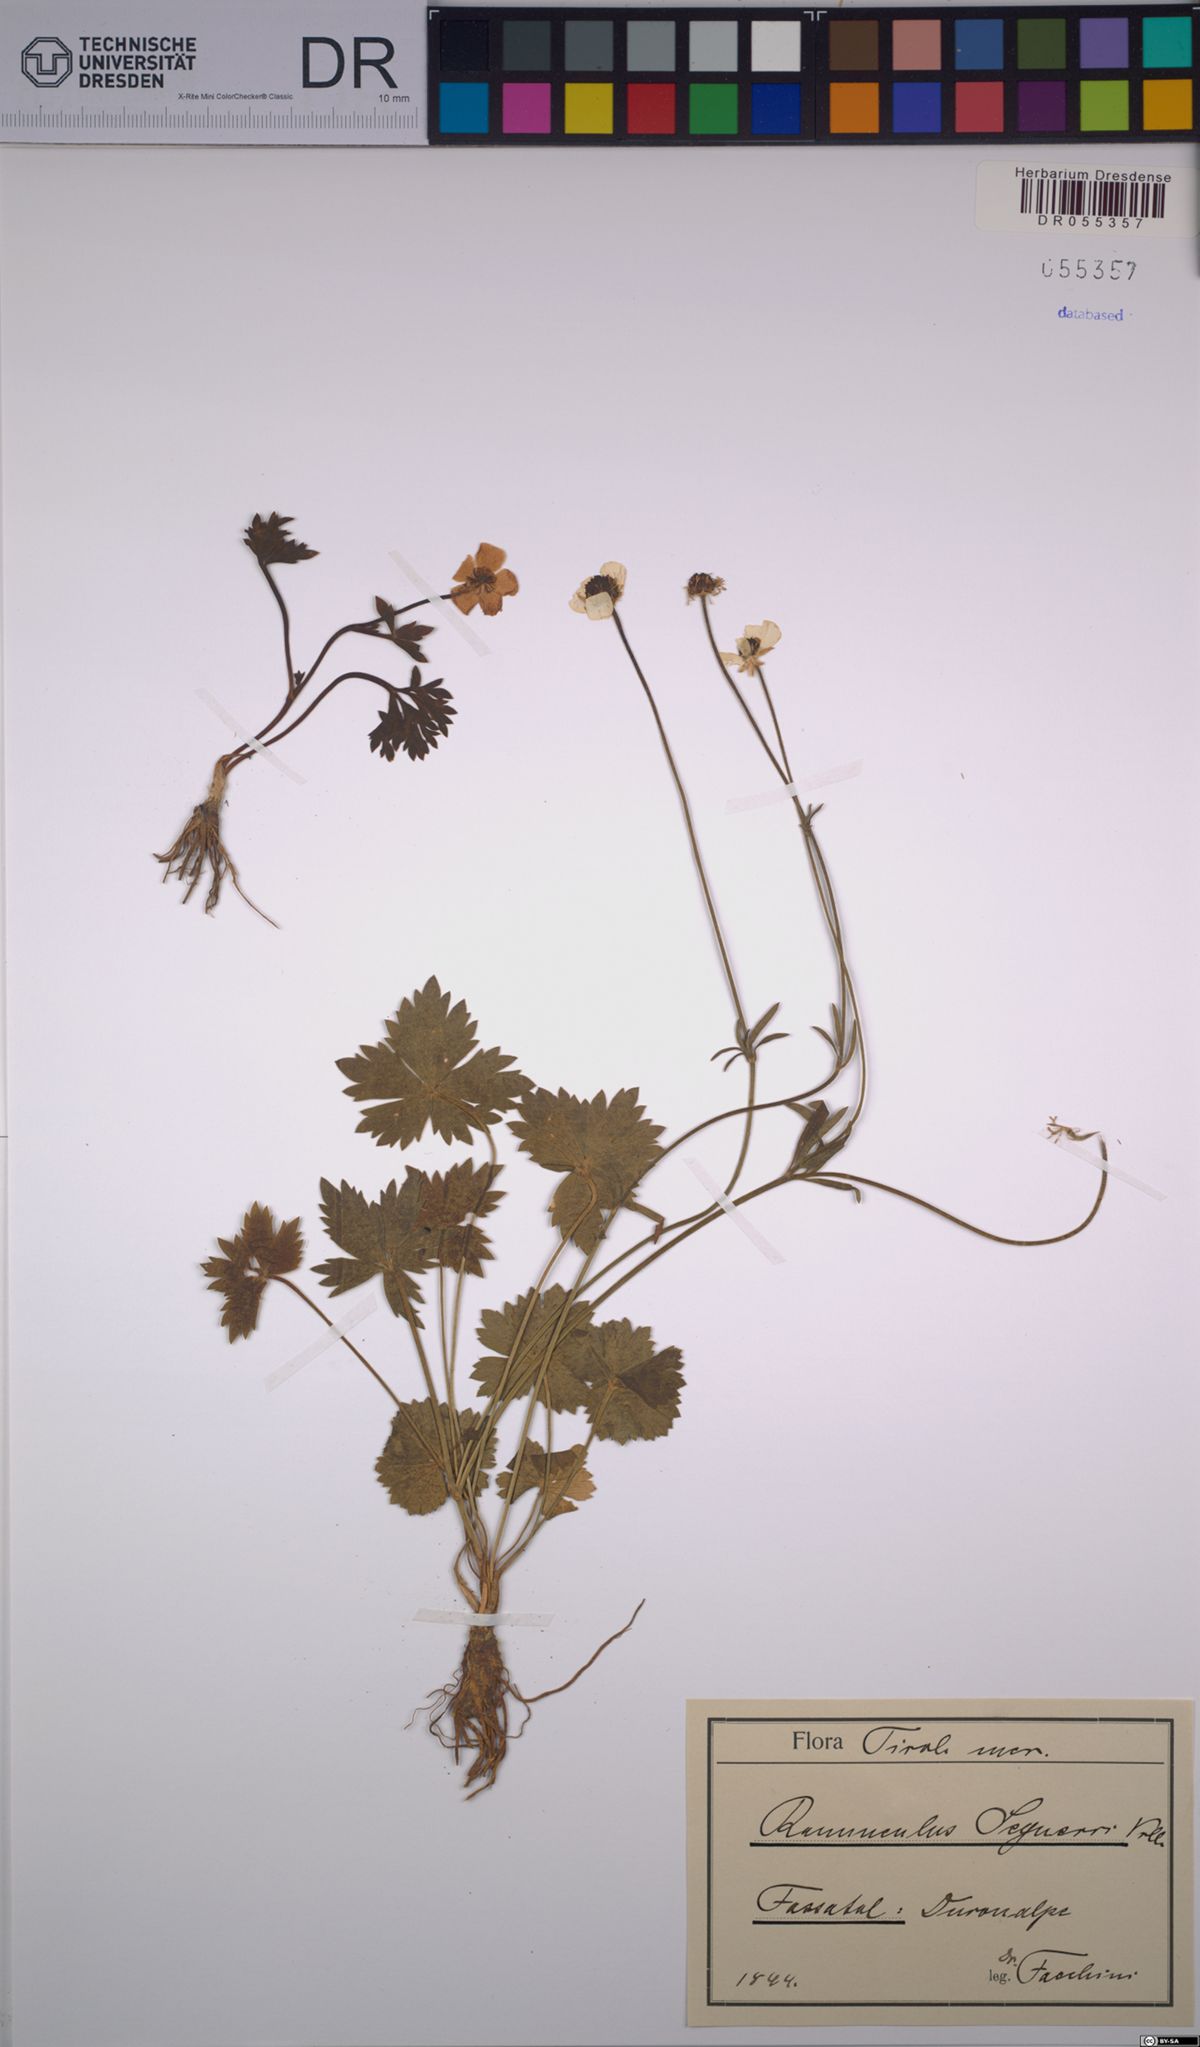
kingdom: Plantae
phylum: Tracheophyta
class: Magnoliopsida
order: Ranunculales
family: Ranunculaceae
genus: Ranunculus
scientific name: Ranunculus seguieri
